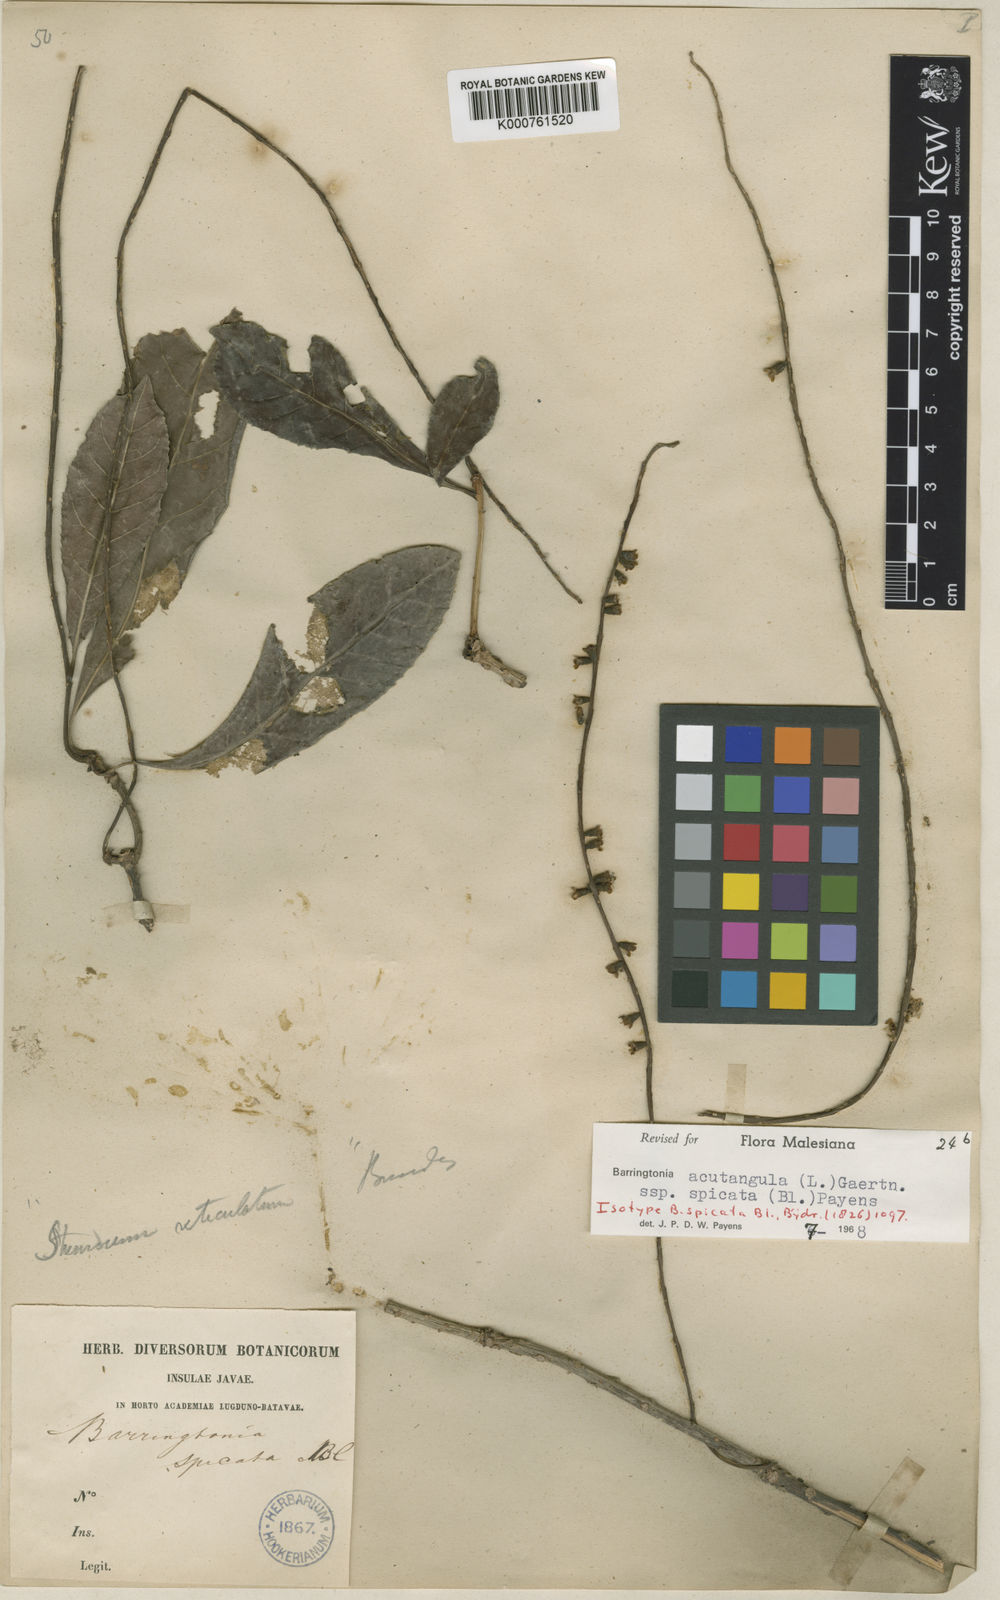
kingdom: Plantae
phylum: Tracheophyta
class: Magnoliopsida
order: Ericales
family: Lecythidaceae
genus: Barringtonia
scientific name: Barringtonia acutangula
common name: Freshwater mangrove
